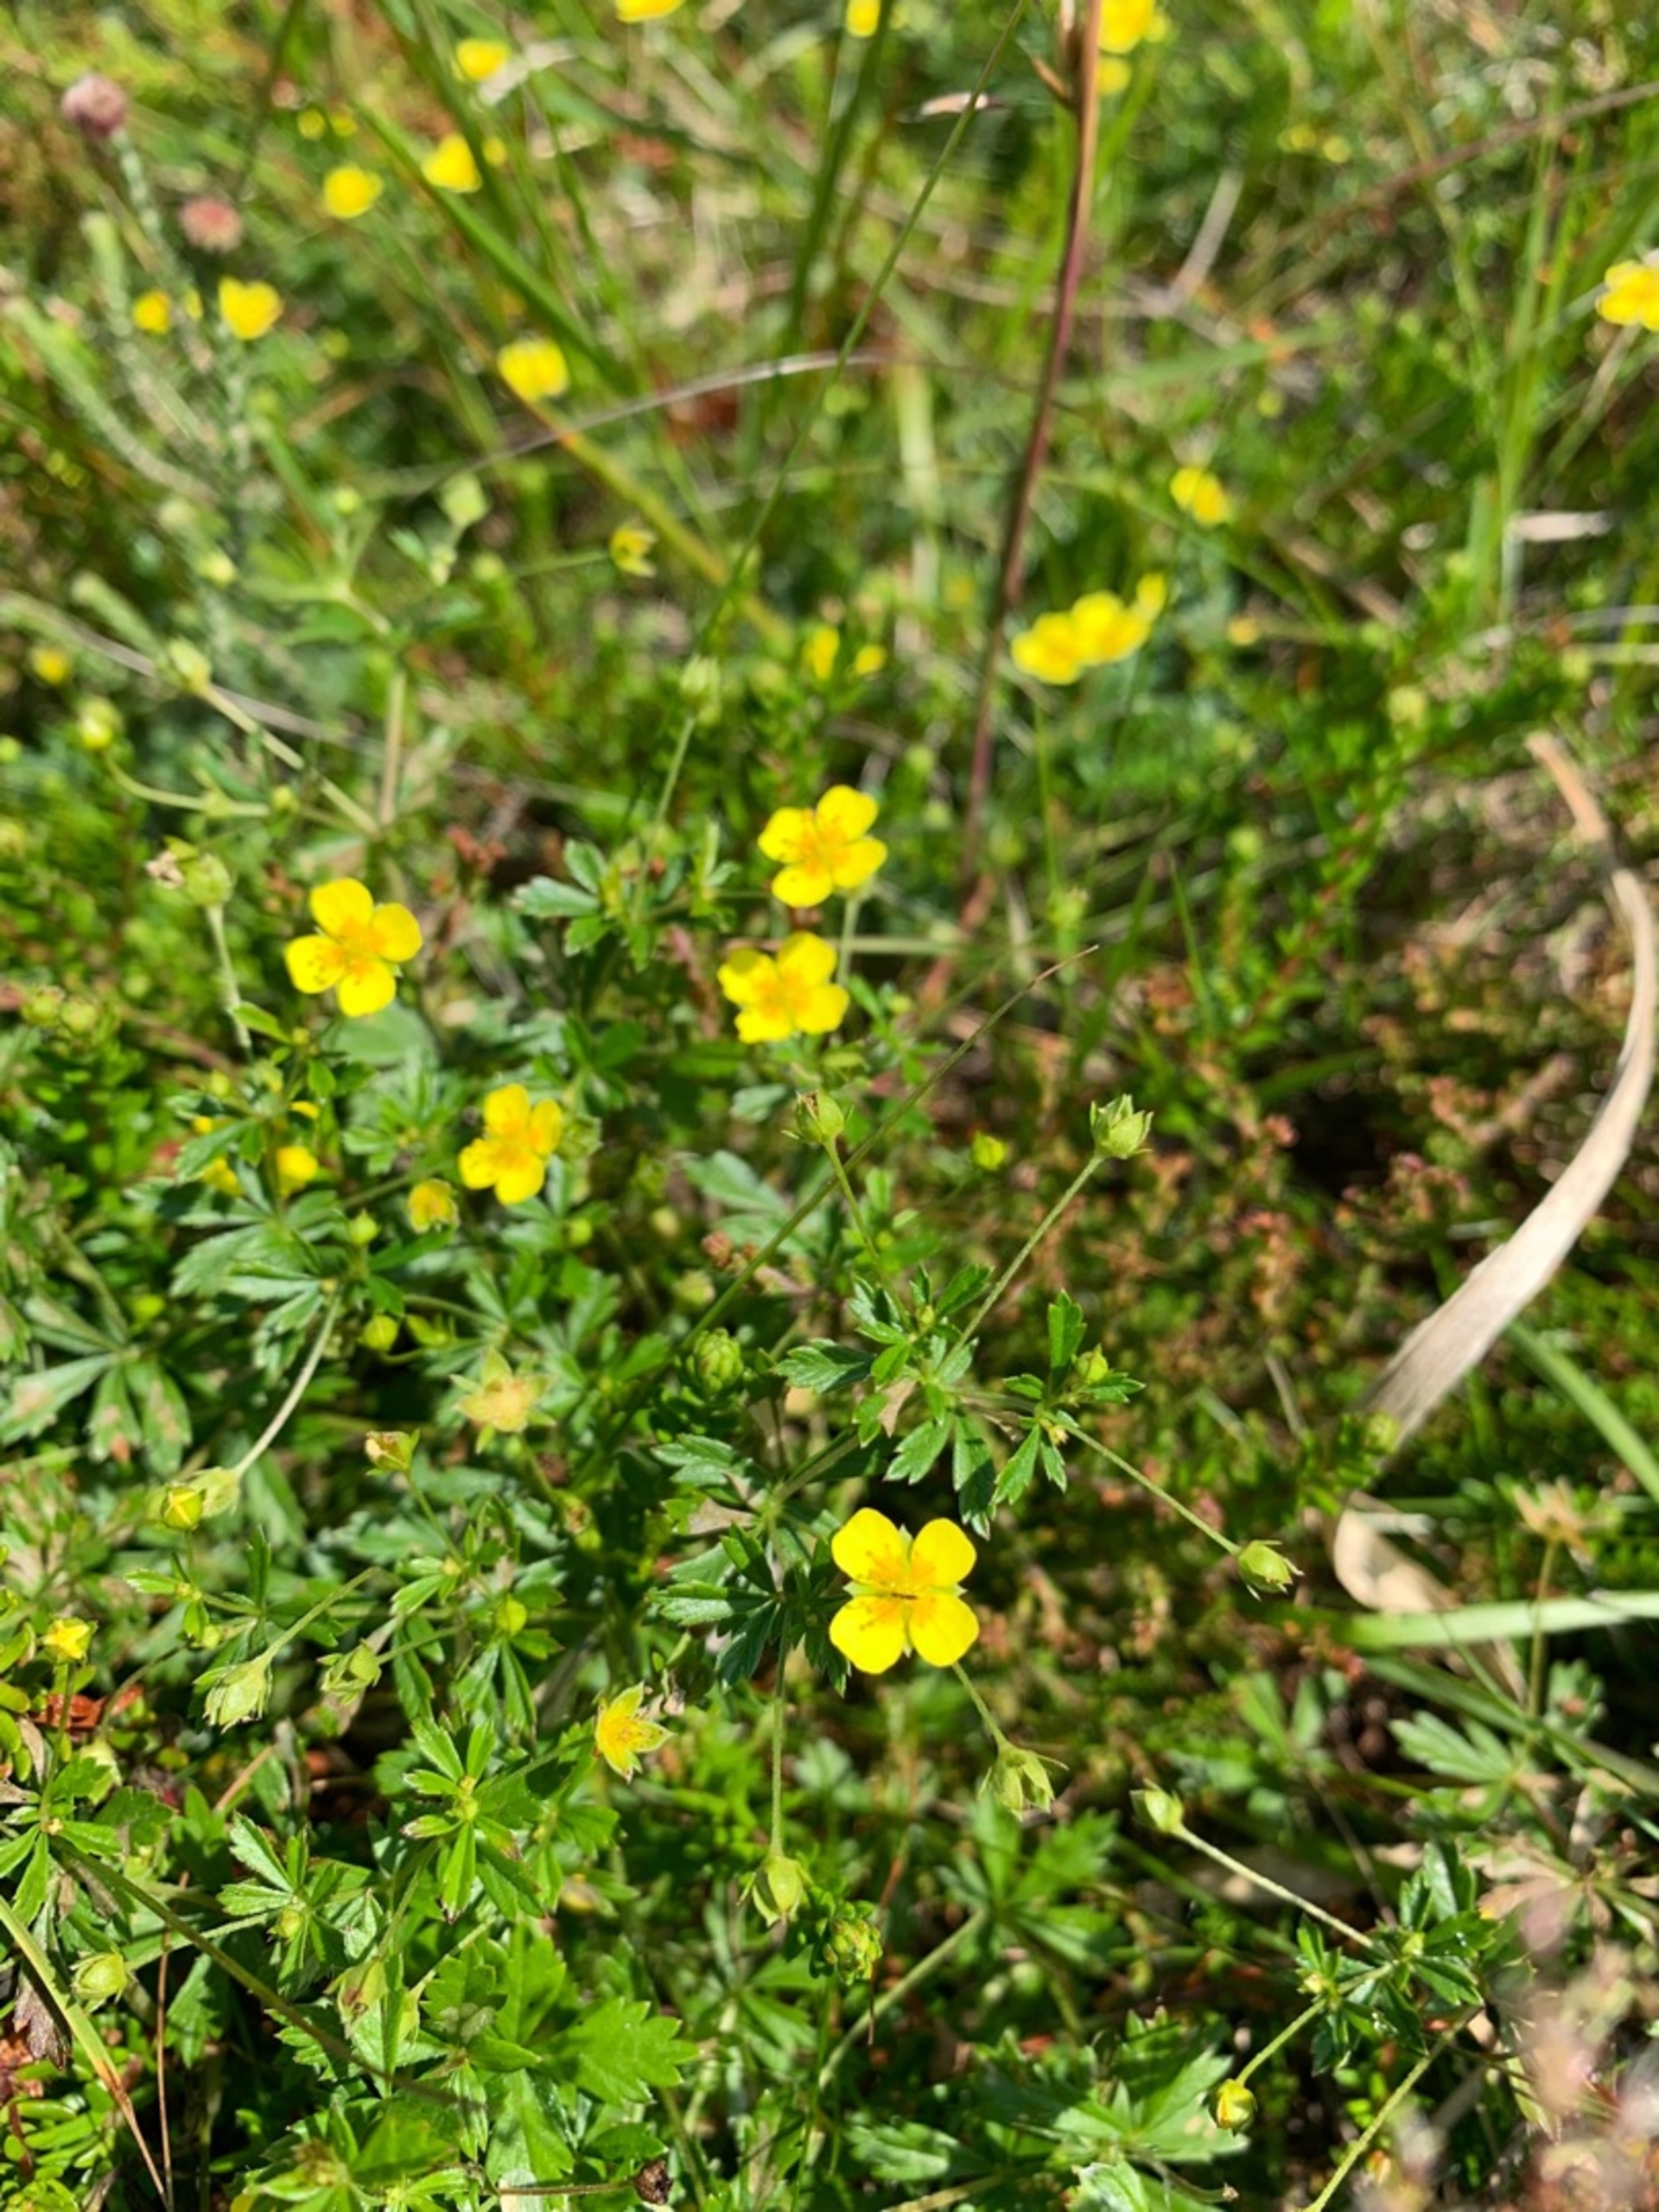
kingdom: Plantae
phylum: Tracheophyta
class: Magnoliopsida
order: Rosales
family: Rosaceae
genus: Potentilla
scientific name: Potentilla erecta
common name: Tormentil
